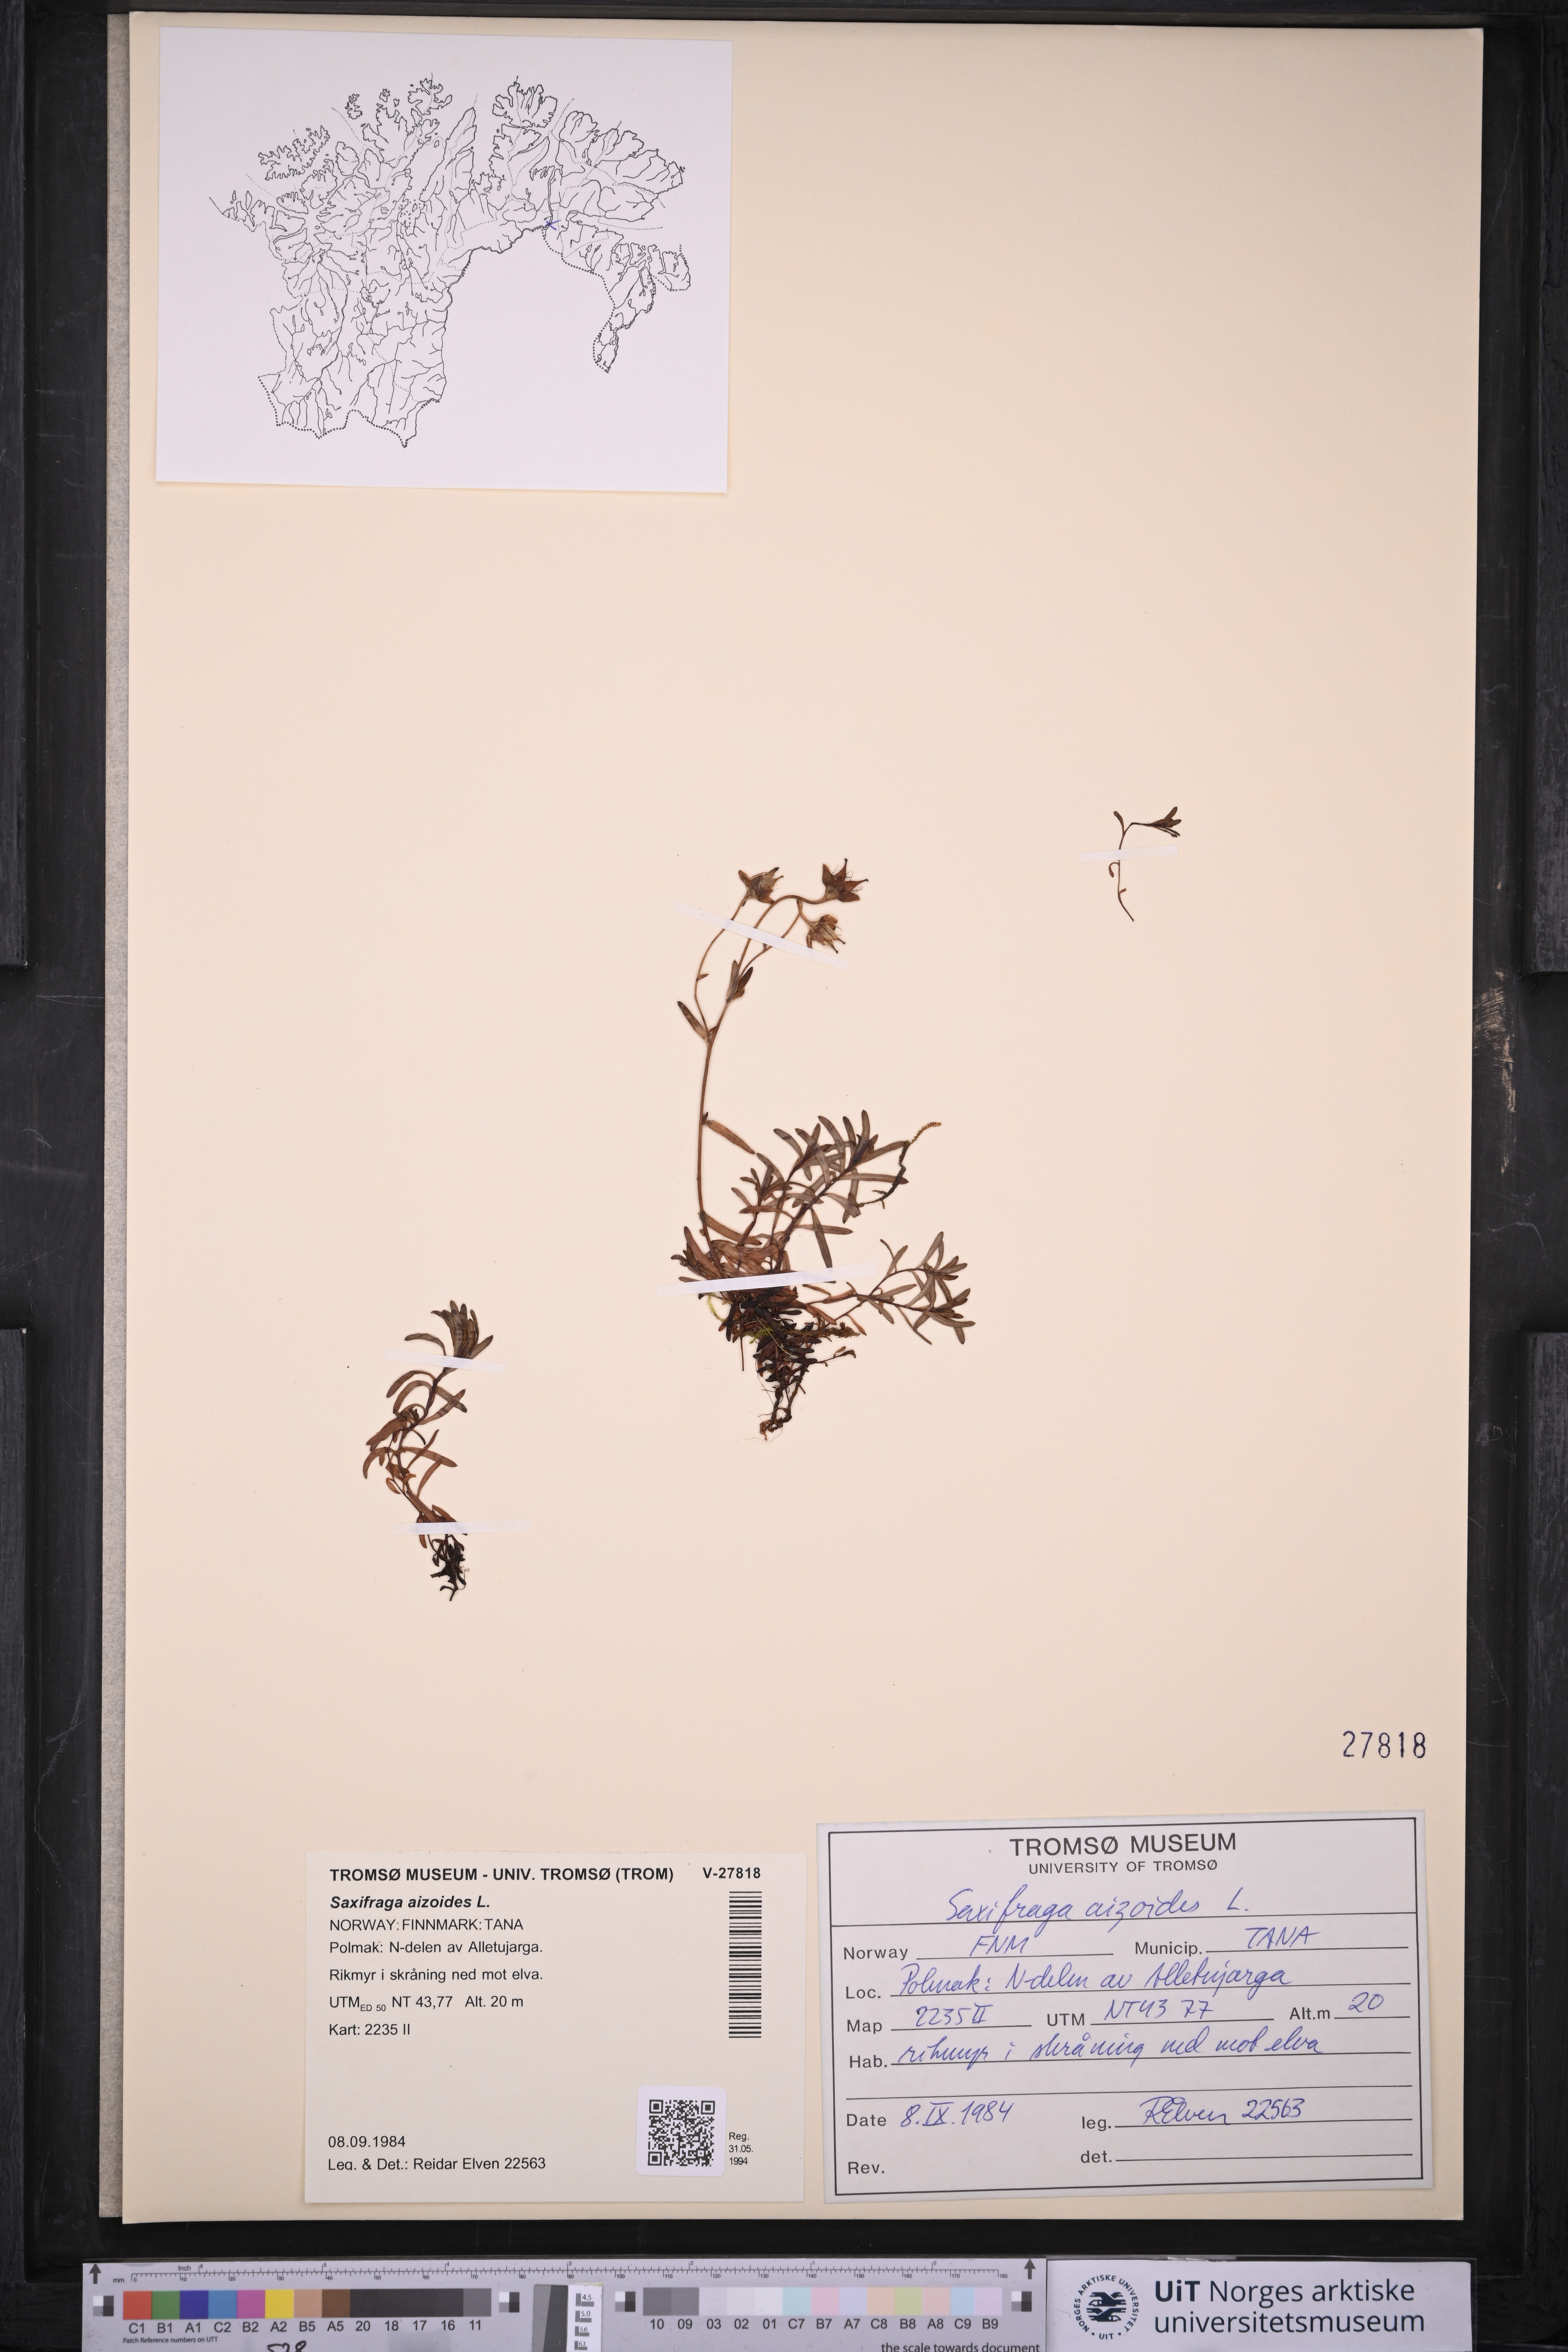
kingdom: Plantae
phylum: Tracheophyta
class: Magnoliopsida
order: Saxifragales
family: Saxifragaceae
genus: Saxifraga
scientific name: Saxifraga aizoides
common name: Yellow mountain saxifrage
